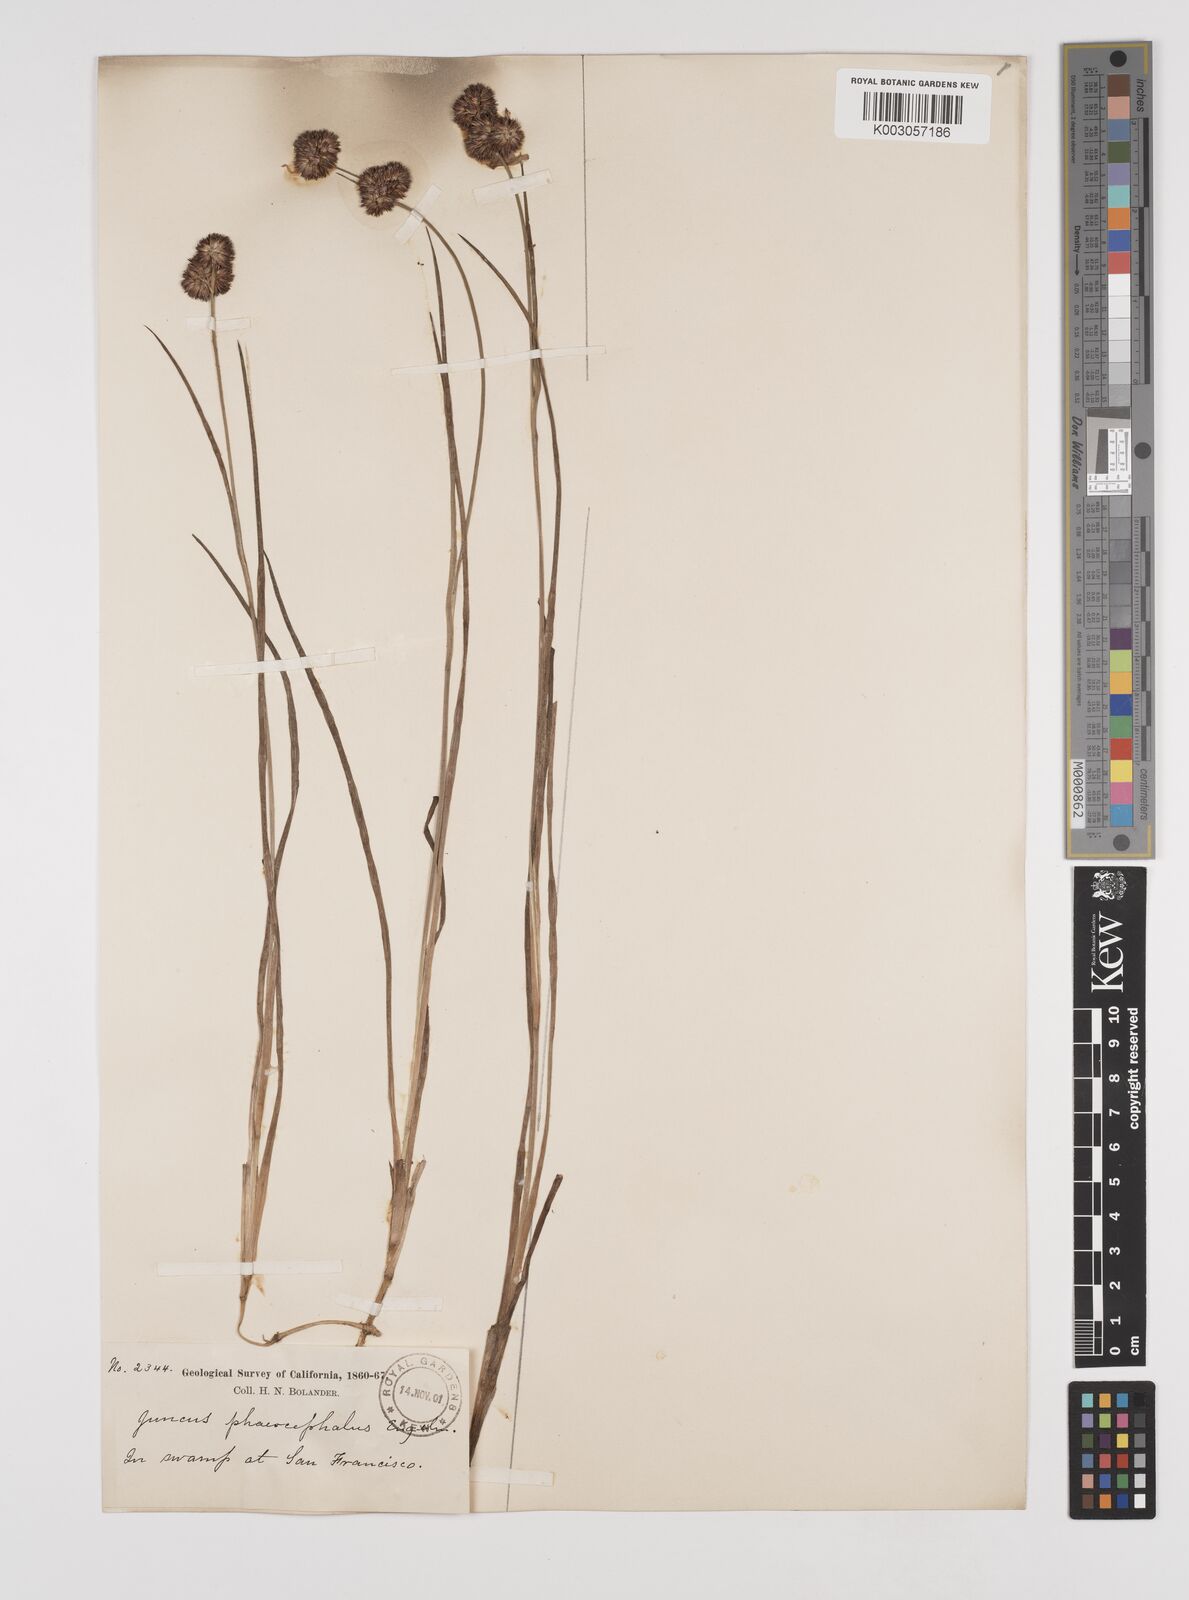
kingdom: Plantae
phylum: Tracheophyta
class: Liliopsida
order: Poales
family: Juncaceae
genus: Juncus
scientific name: Juncus phaeocephalus
